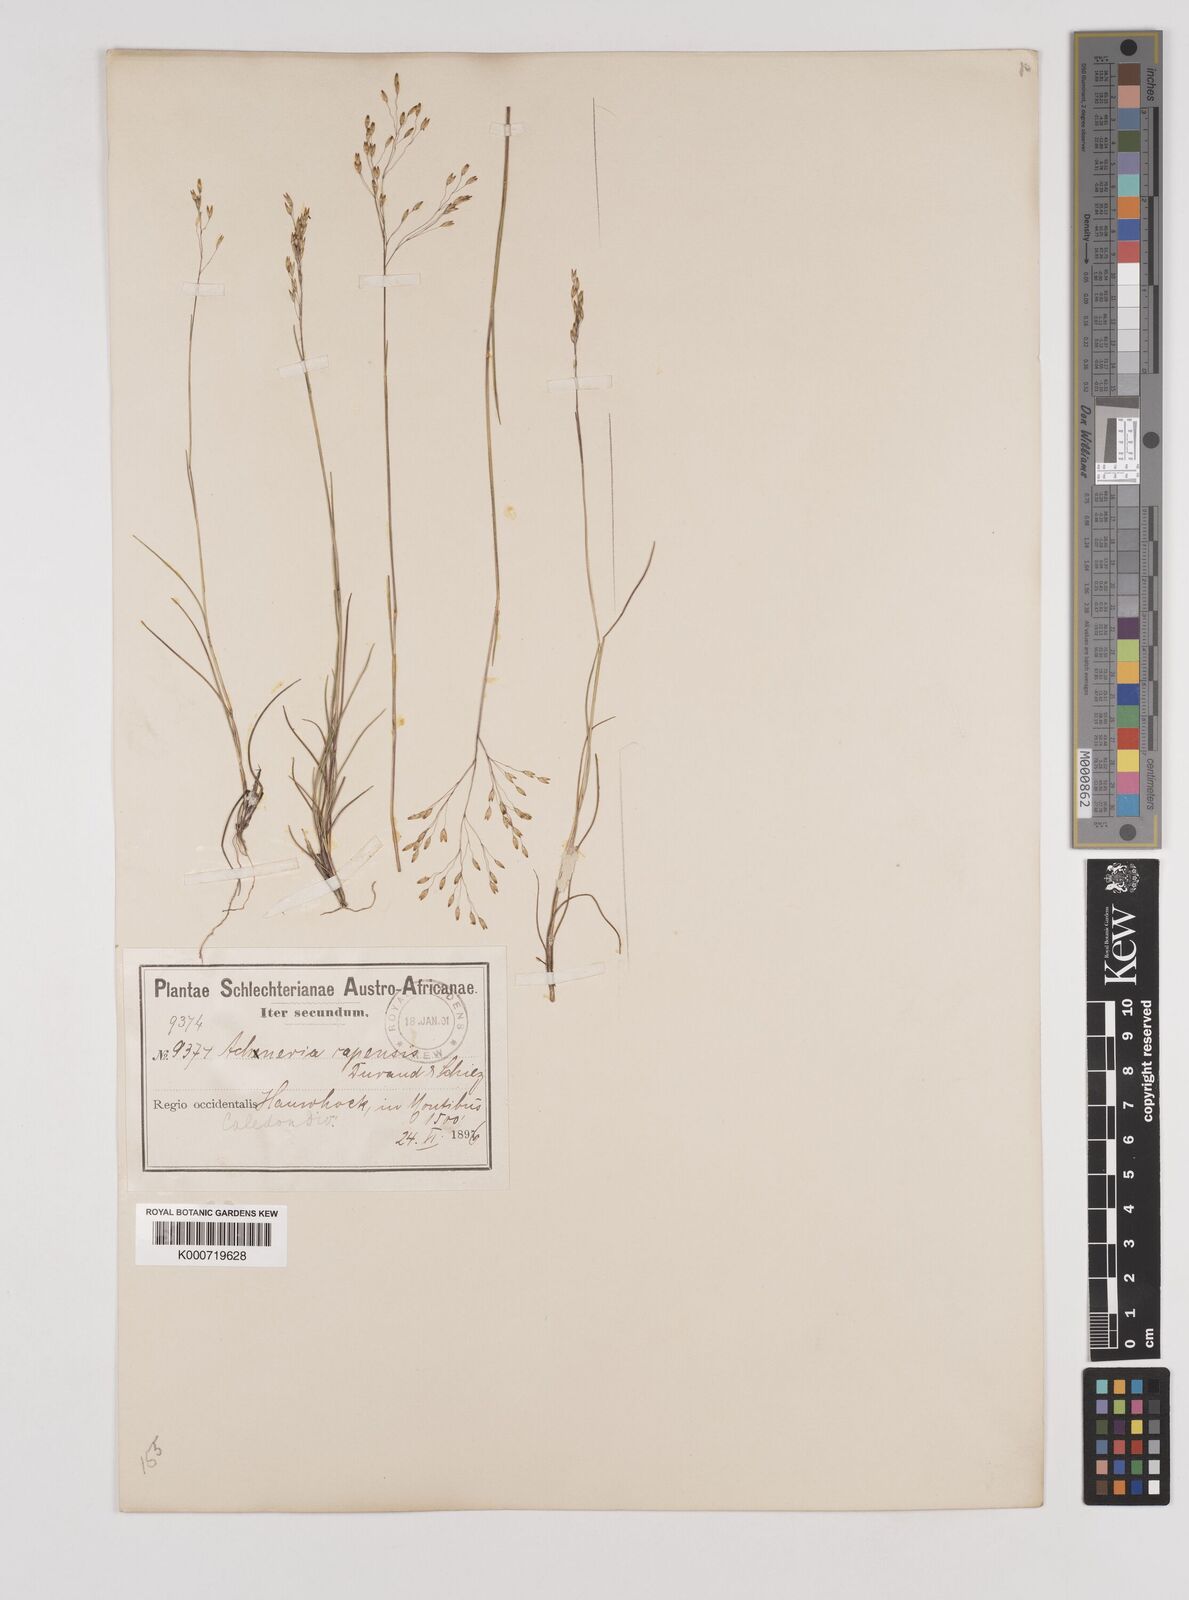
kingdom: Plantae
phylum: Tracheophyta
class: Liliopsida
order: Poales
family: Poaceae
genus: Pentameris
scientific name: Pentameris malouinensis
